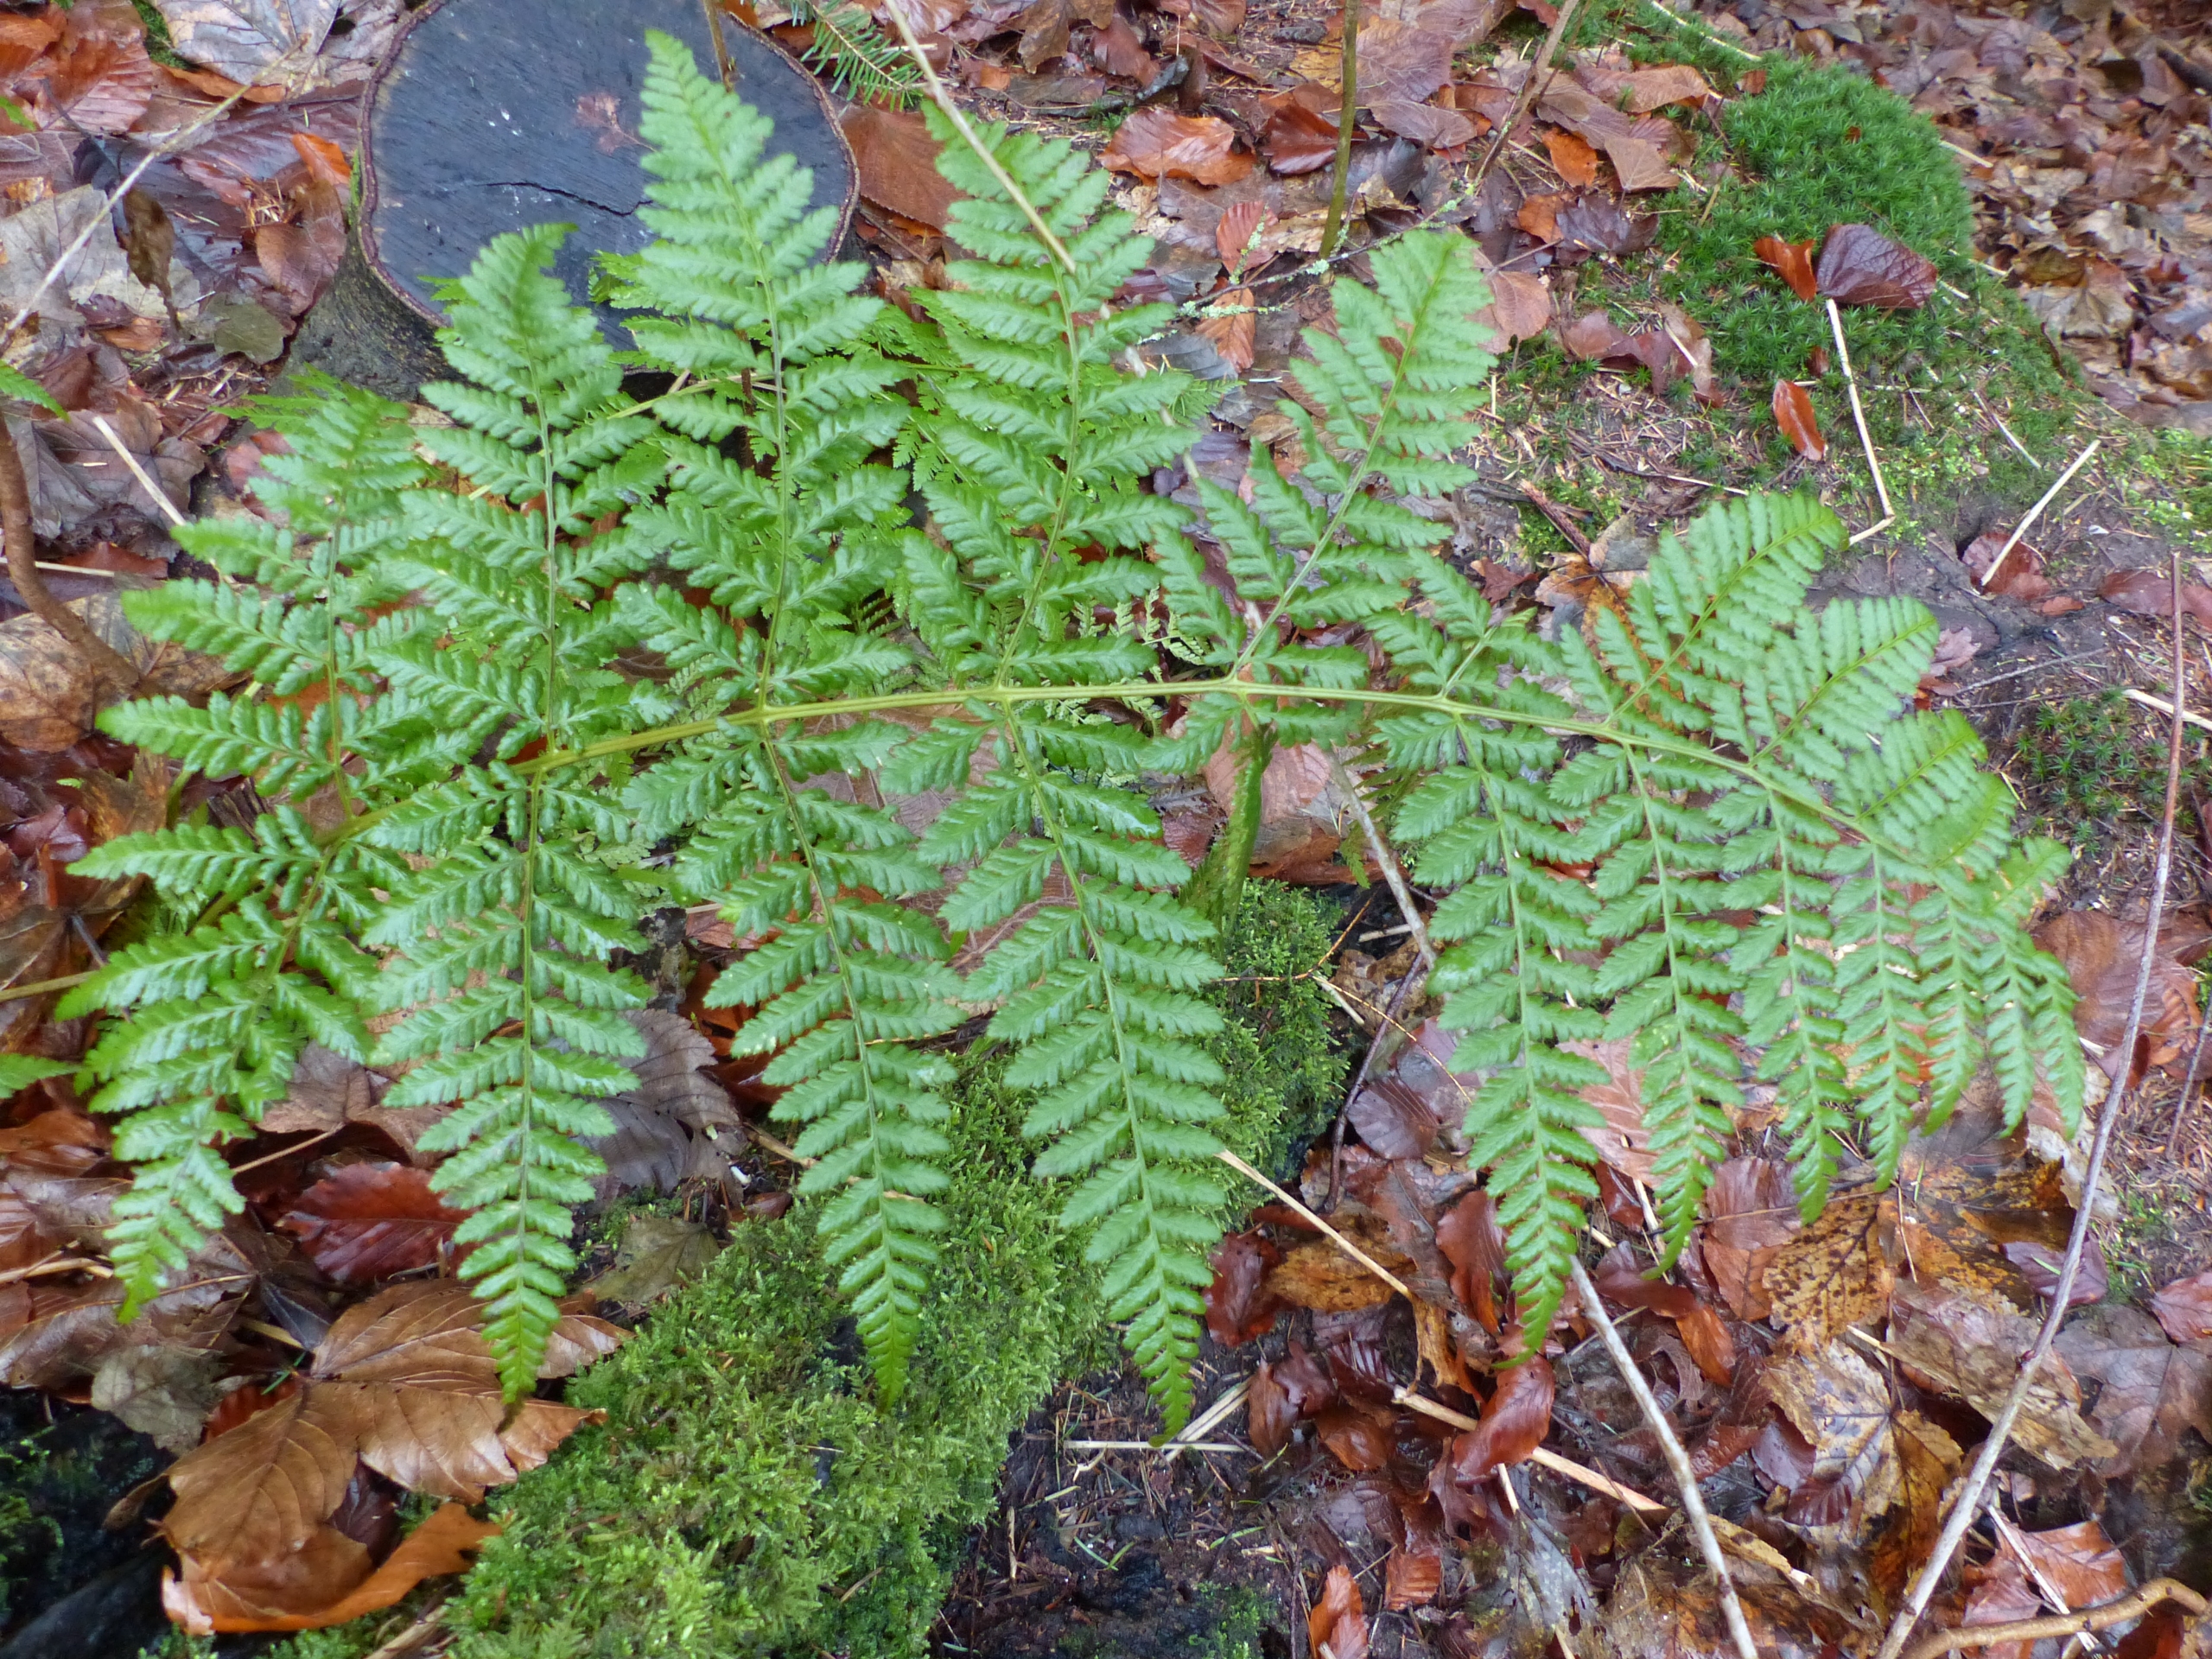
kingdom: Plantae
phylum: Tracheophyta
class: Polypodiopsida
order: Polypodiales
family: Dryopteridaceae
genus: Dryopteris
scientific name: Dryopteris dilatata
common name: Bredbladet mangeløv
